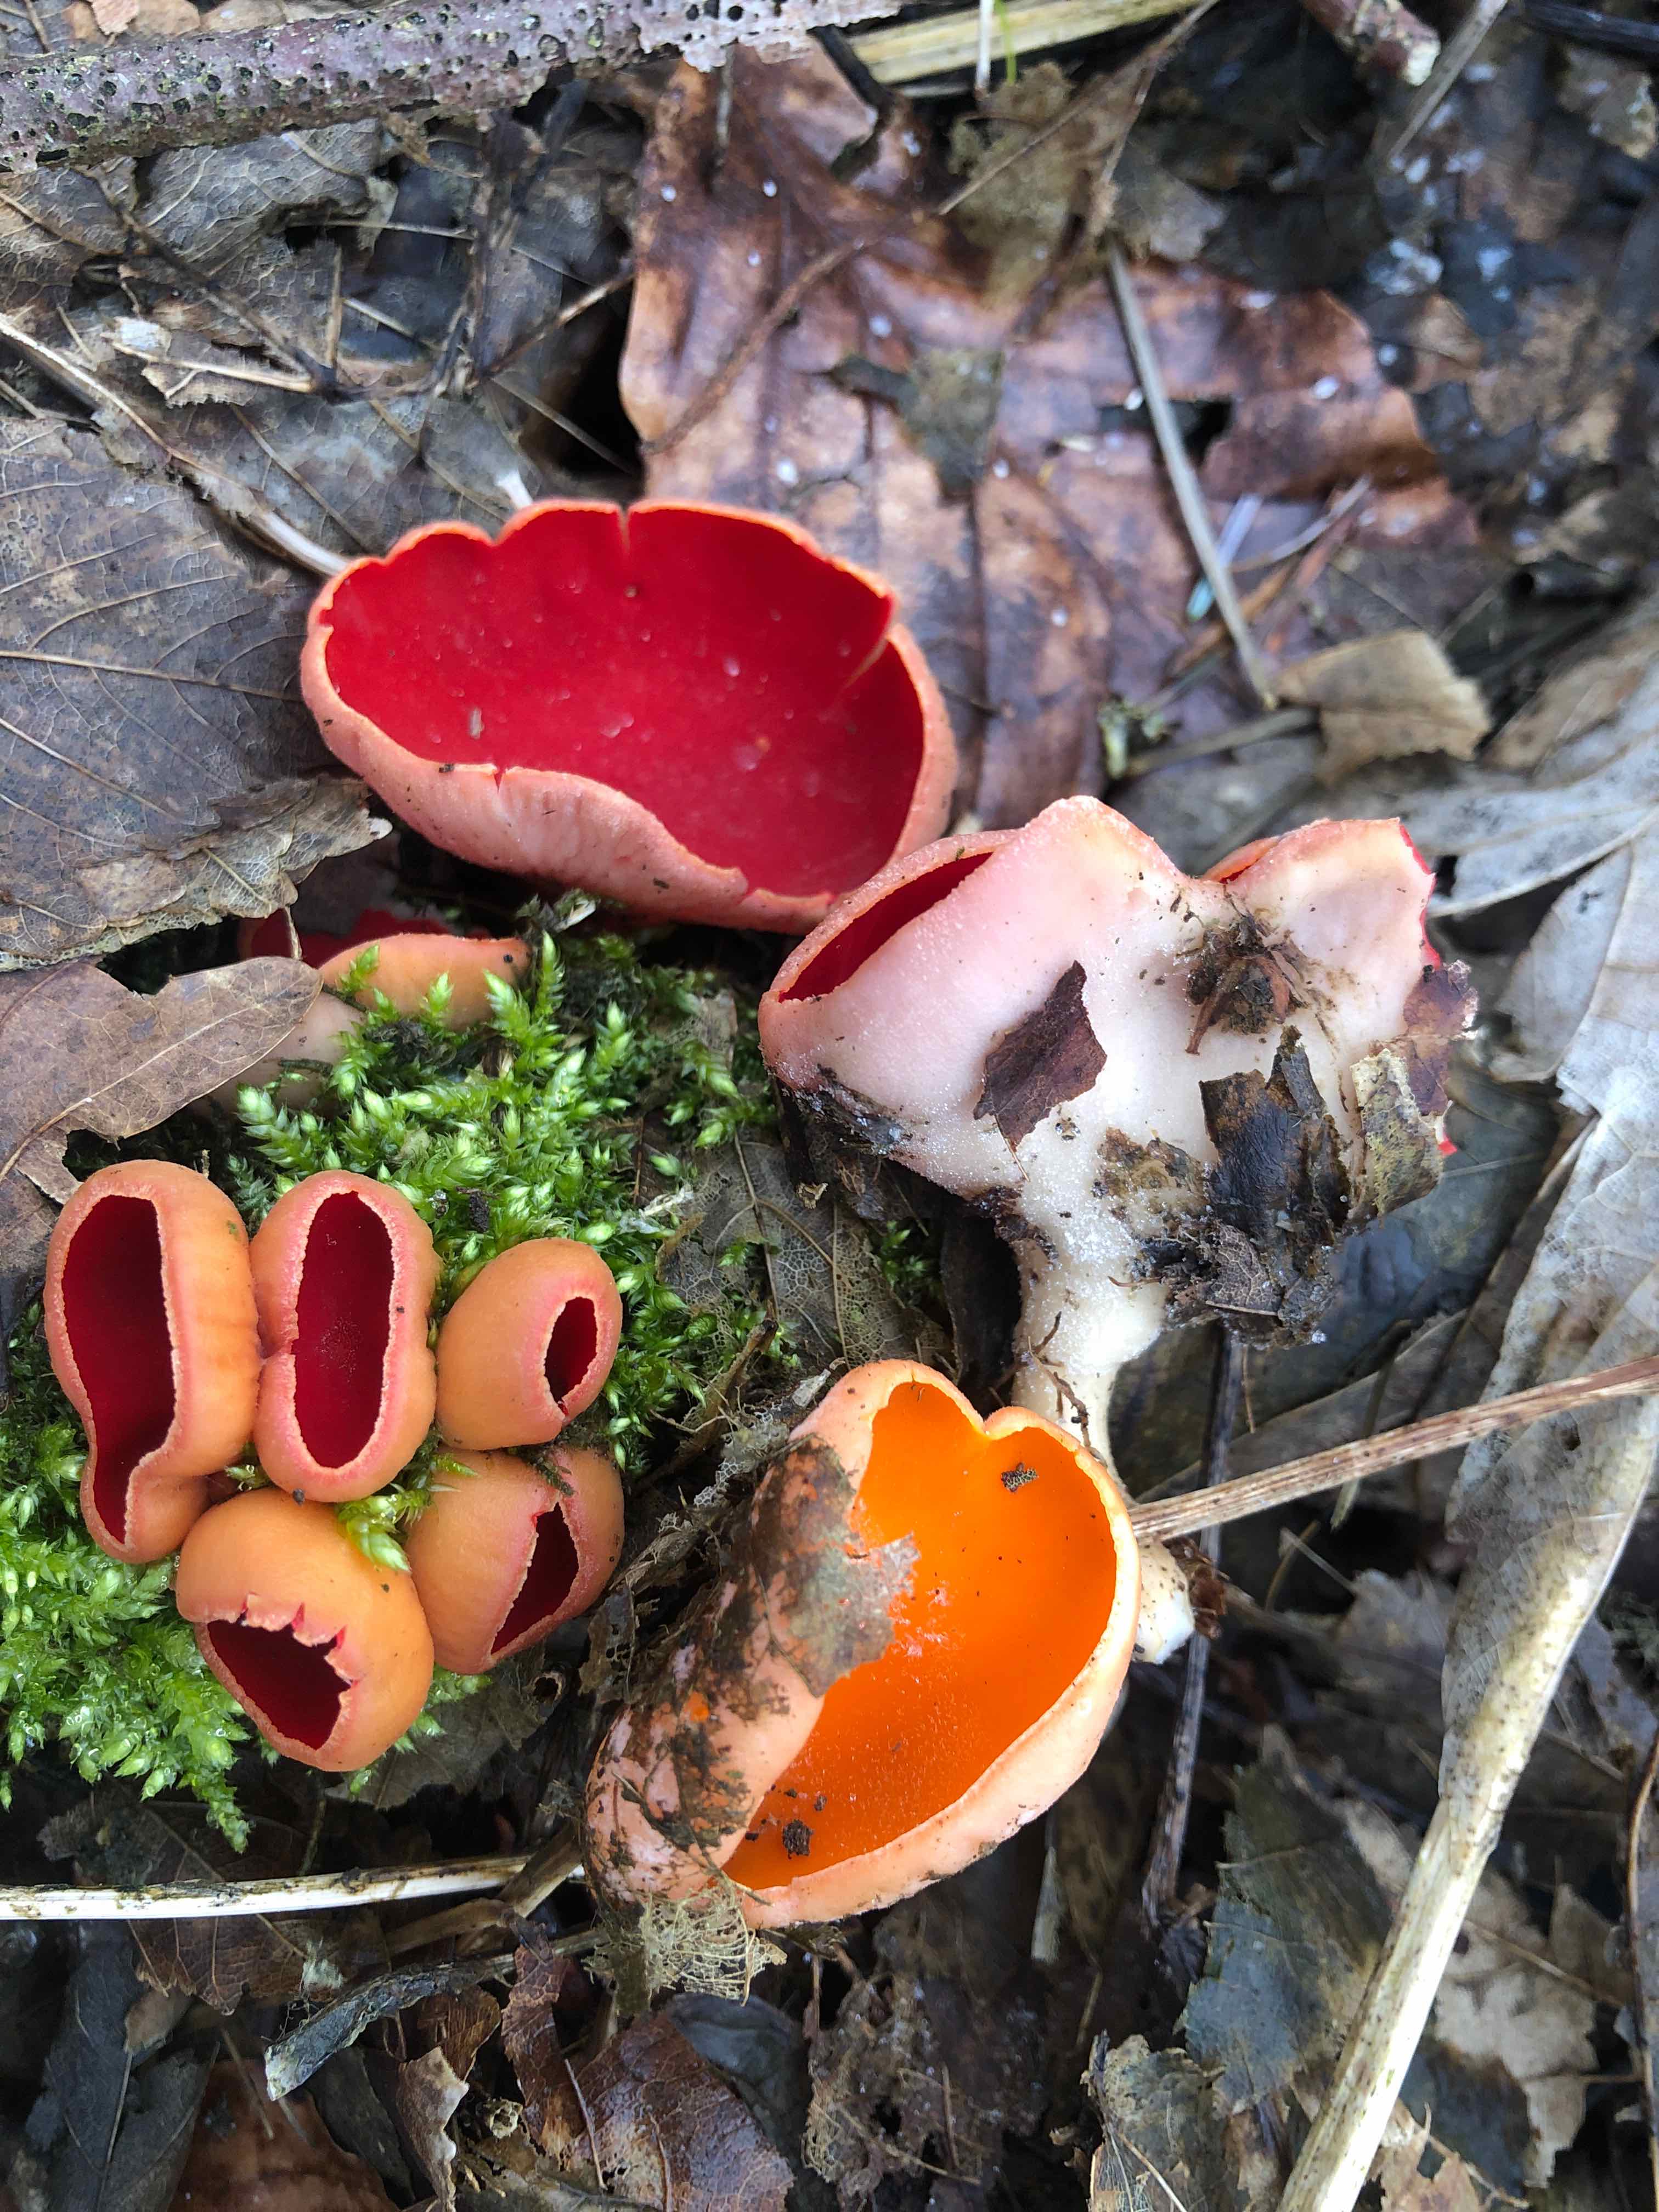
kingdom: Fungi
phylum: Ascomycota
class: Pezizomycetes
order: Pezizales
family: Sarcoscyphaceae
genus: Sarcoscypha
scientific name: Sarcoscypha austriaca
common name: krølhåret pragtbæger
